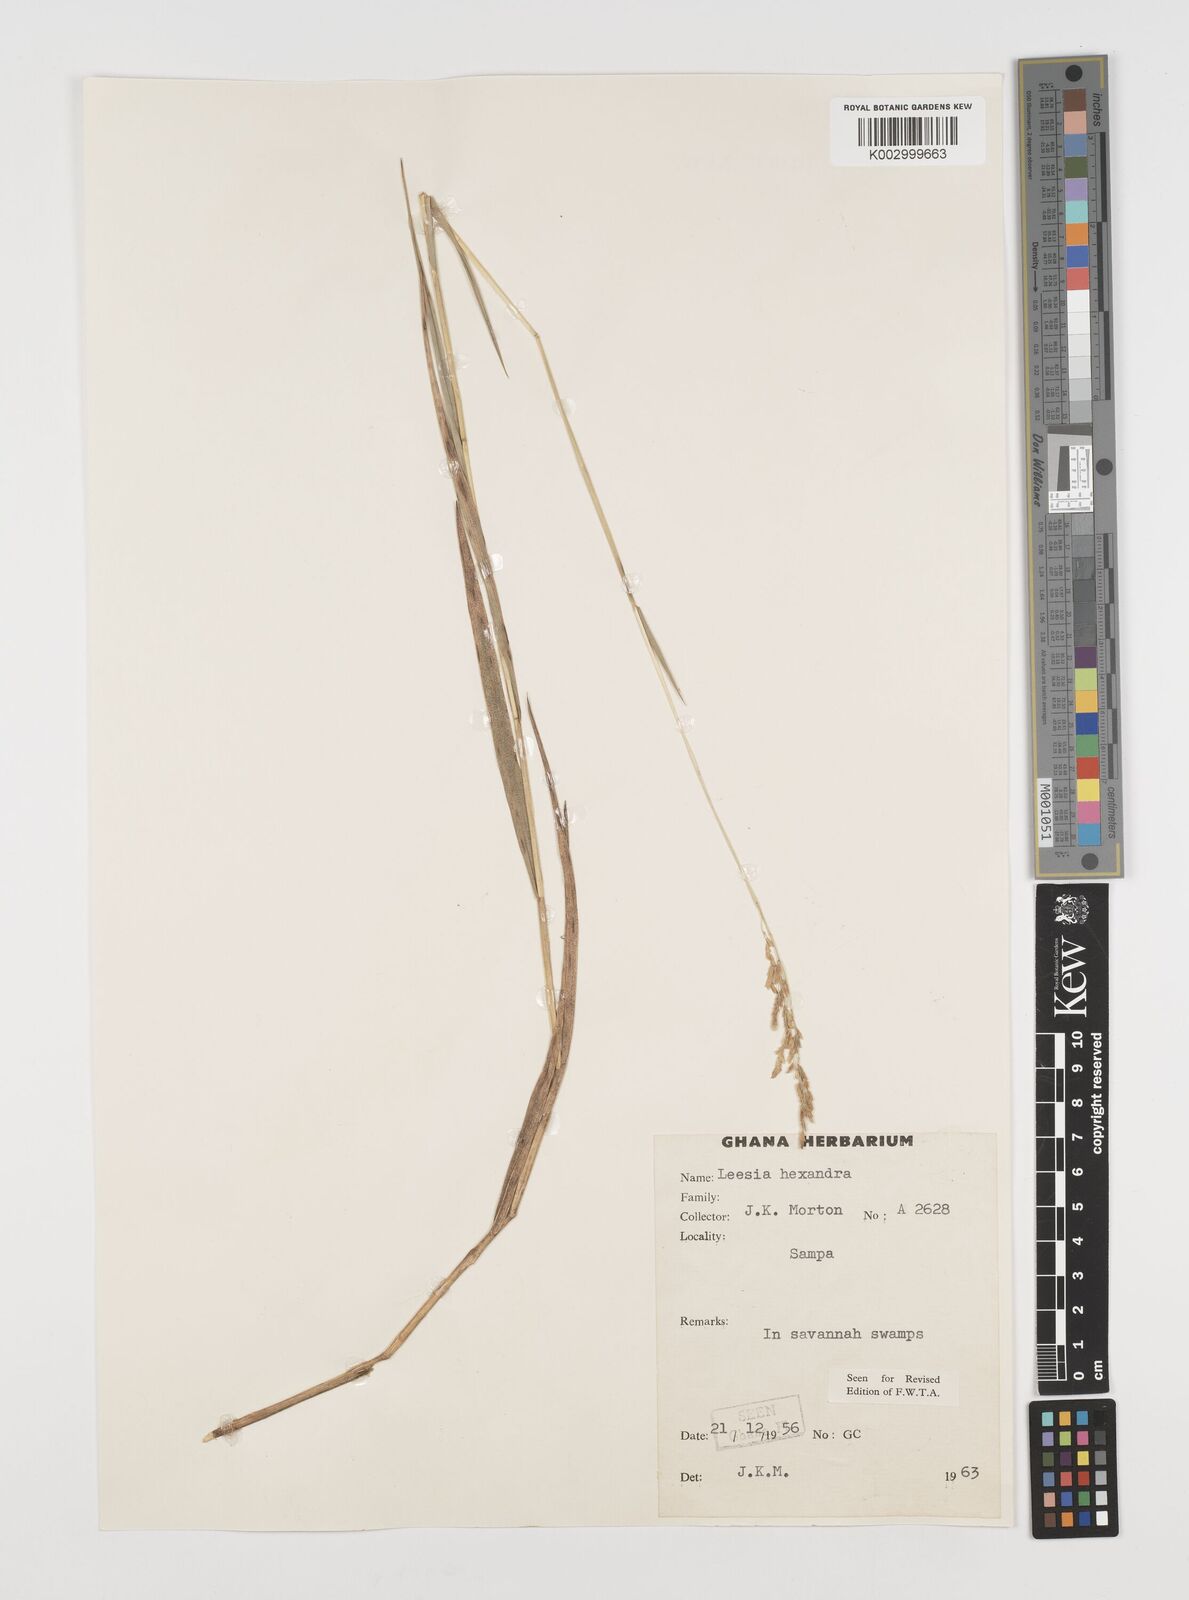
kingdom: Plantae
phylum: Tracheophyta
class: Liliopsida
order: Poales
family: Poaceae
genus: Leersia
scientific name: Leersia hexandra
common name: Southern cut grass
